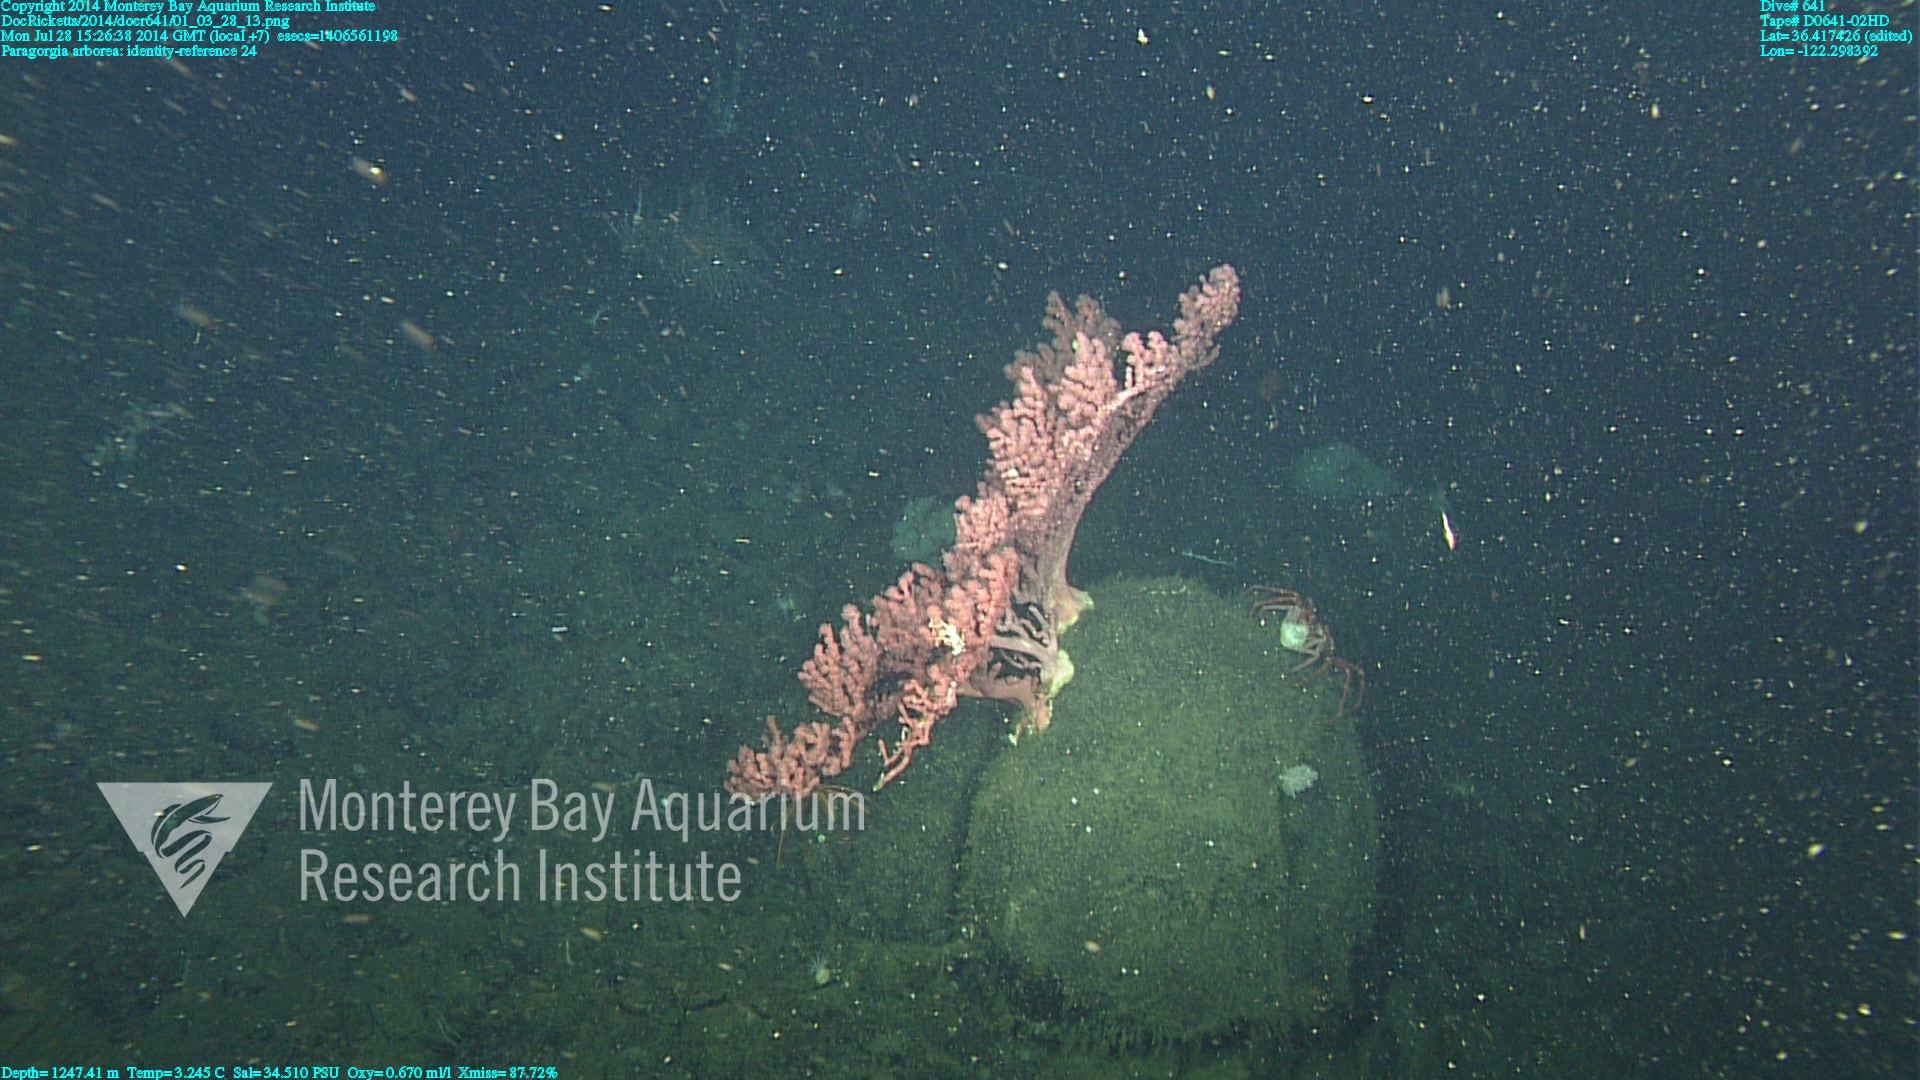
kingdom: Animalia
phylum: Cnidaria
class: Anthozoa
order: Scleralcyonacea
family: Coralliidae
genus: Paragorgia
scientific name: Paragorgia arborea
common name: Bubble gum coral
